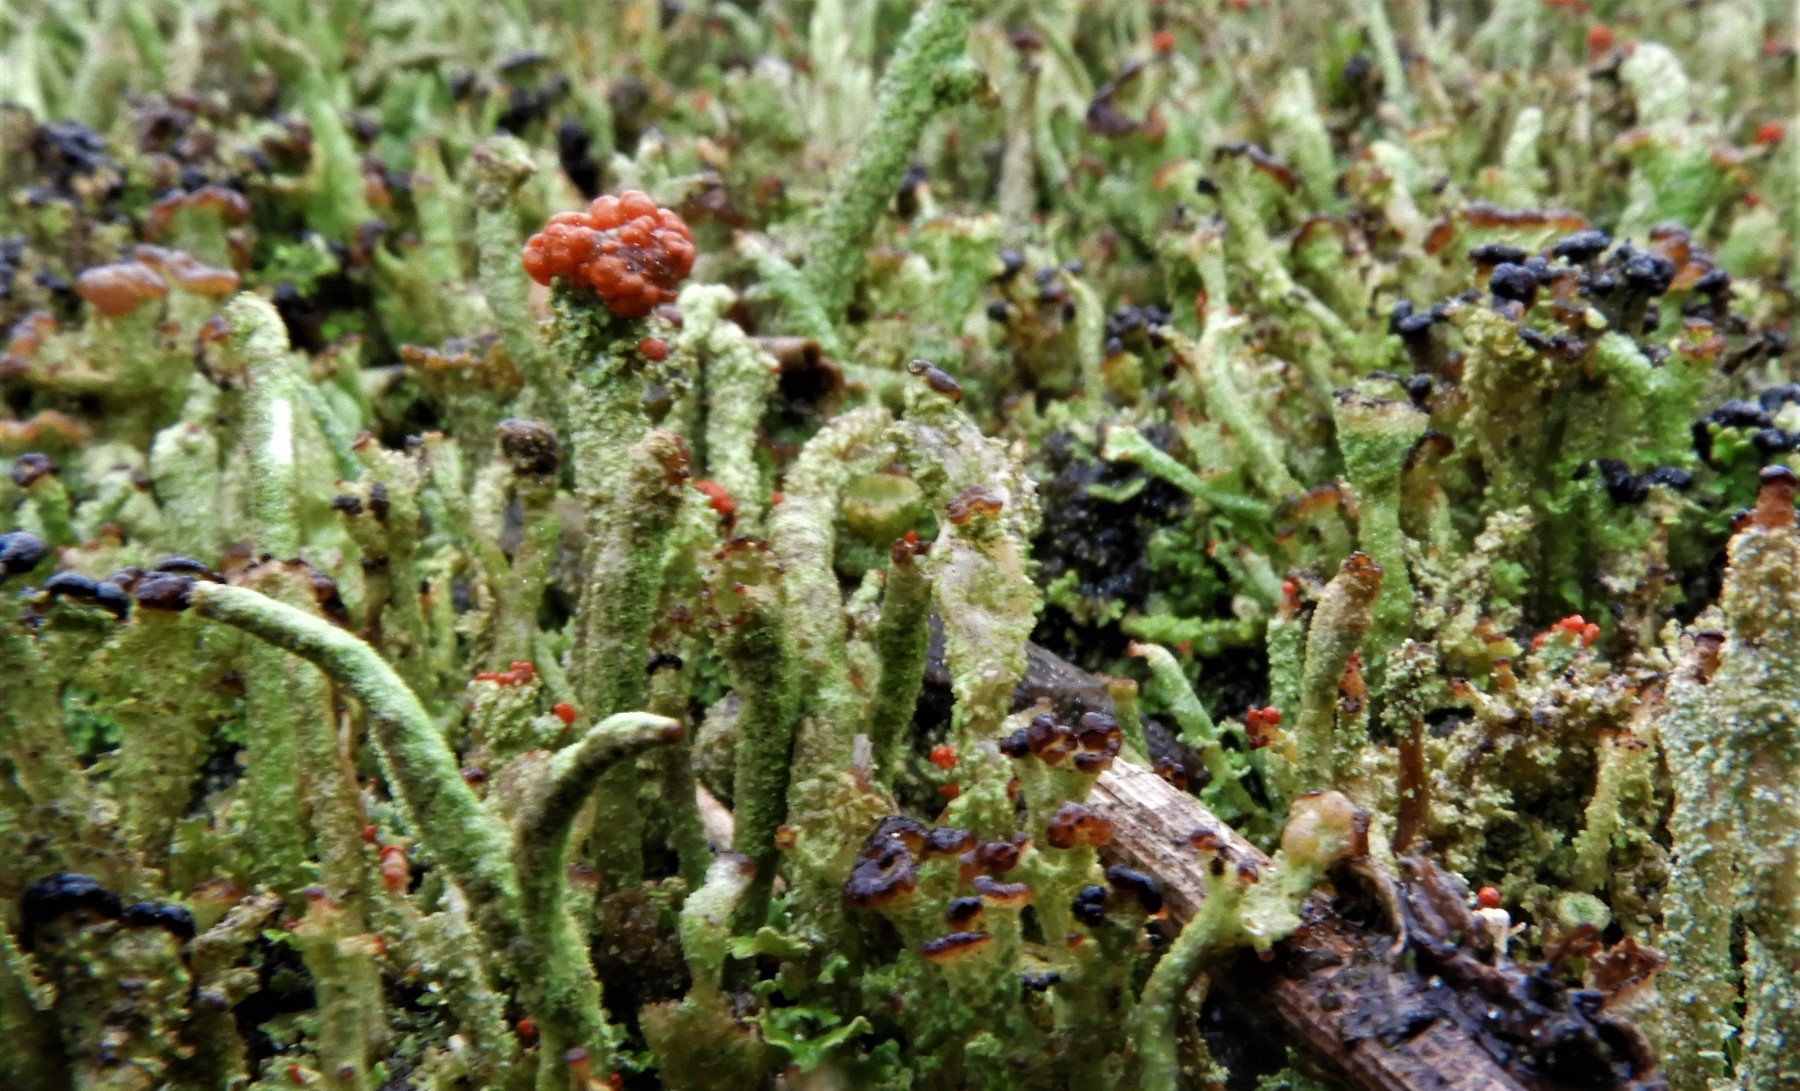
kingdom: Fungi
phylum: Ascomycota
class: Lecanoromycetes
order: Lecanorales
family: Cladoniaceae
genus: Cladonia
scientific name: Cladonia floerkeana
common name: lakrød bægerlav
